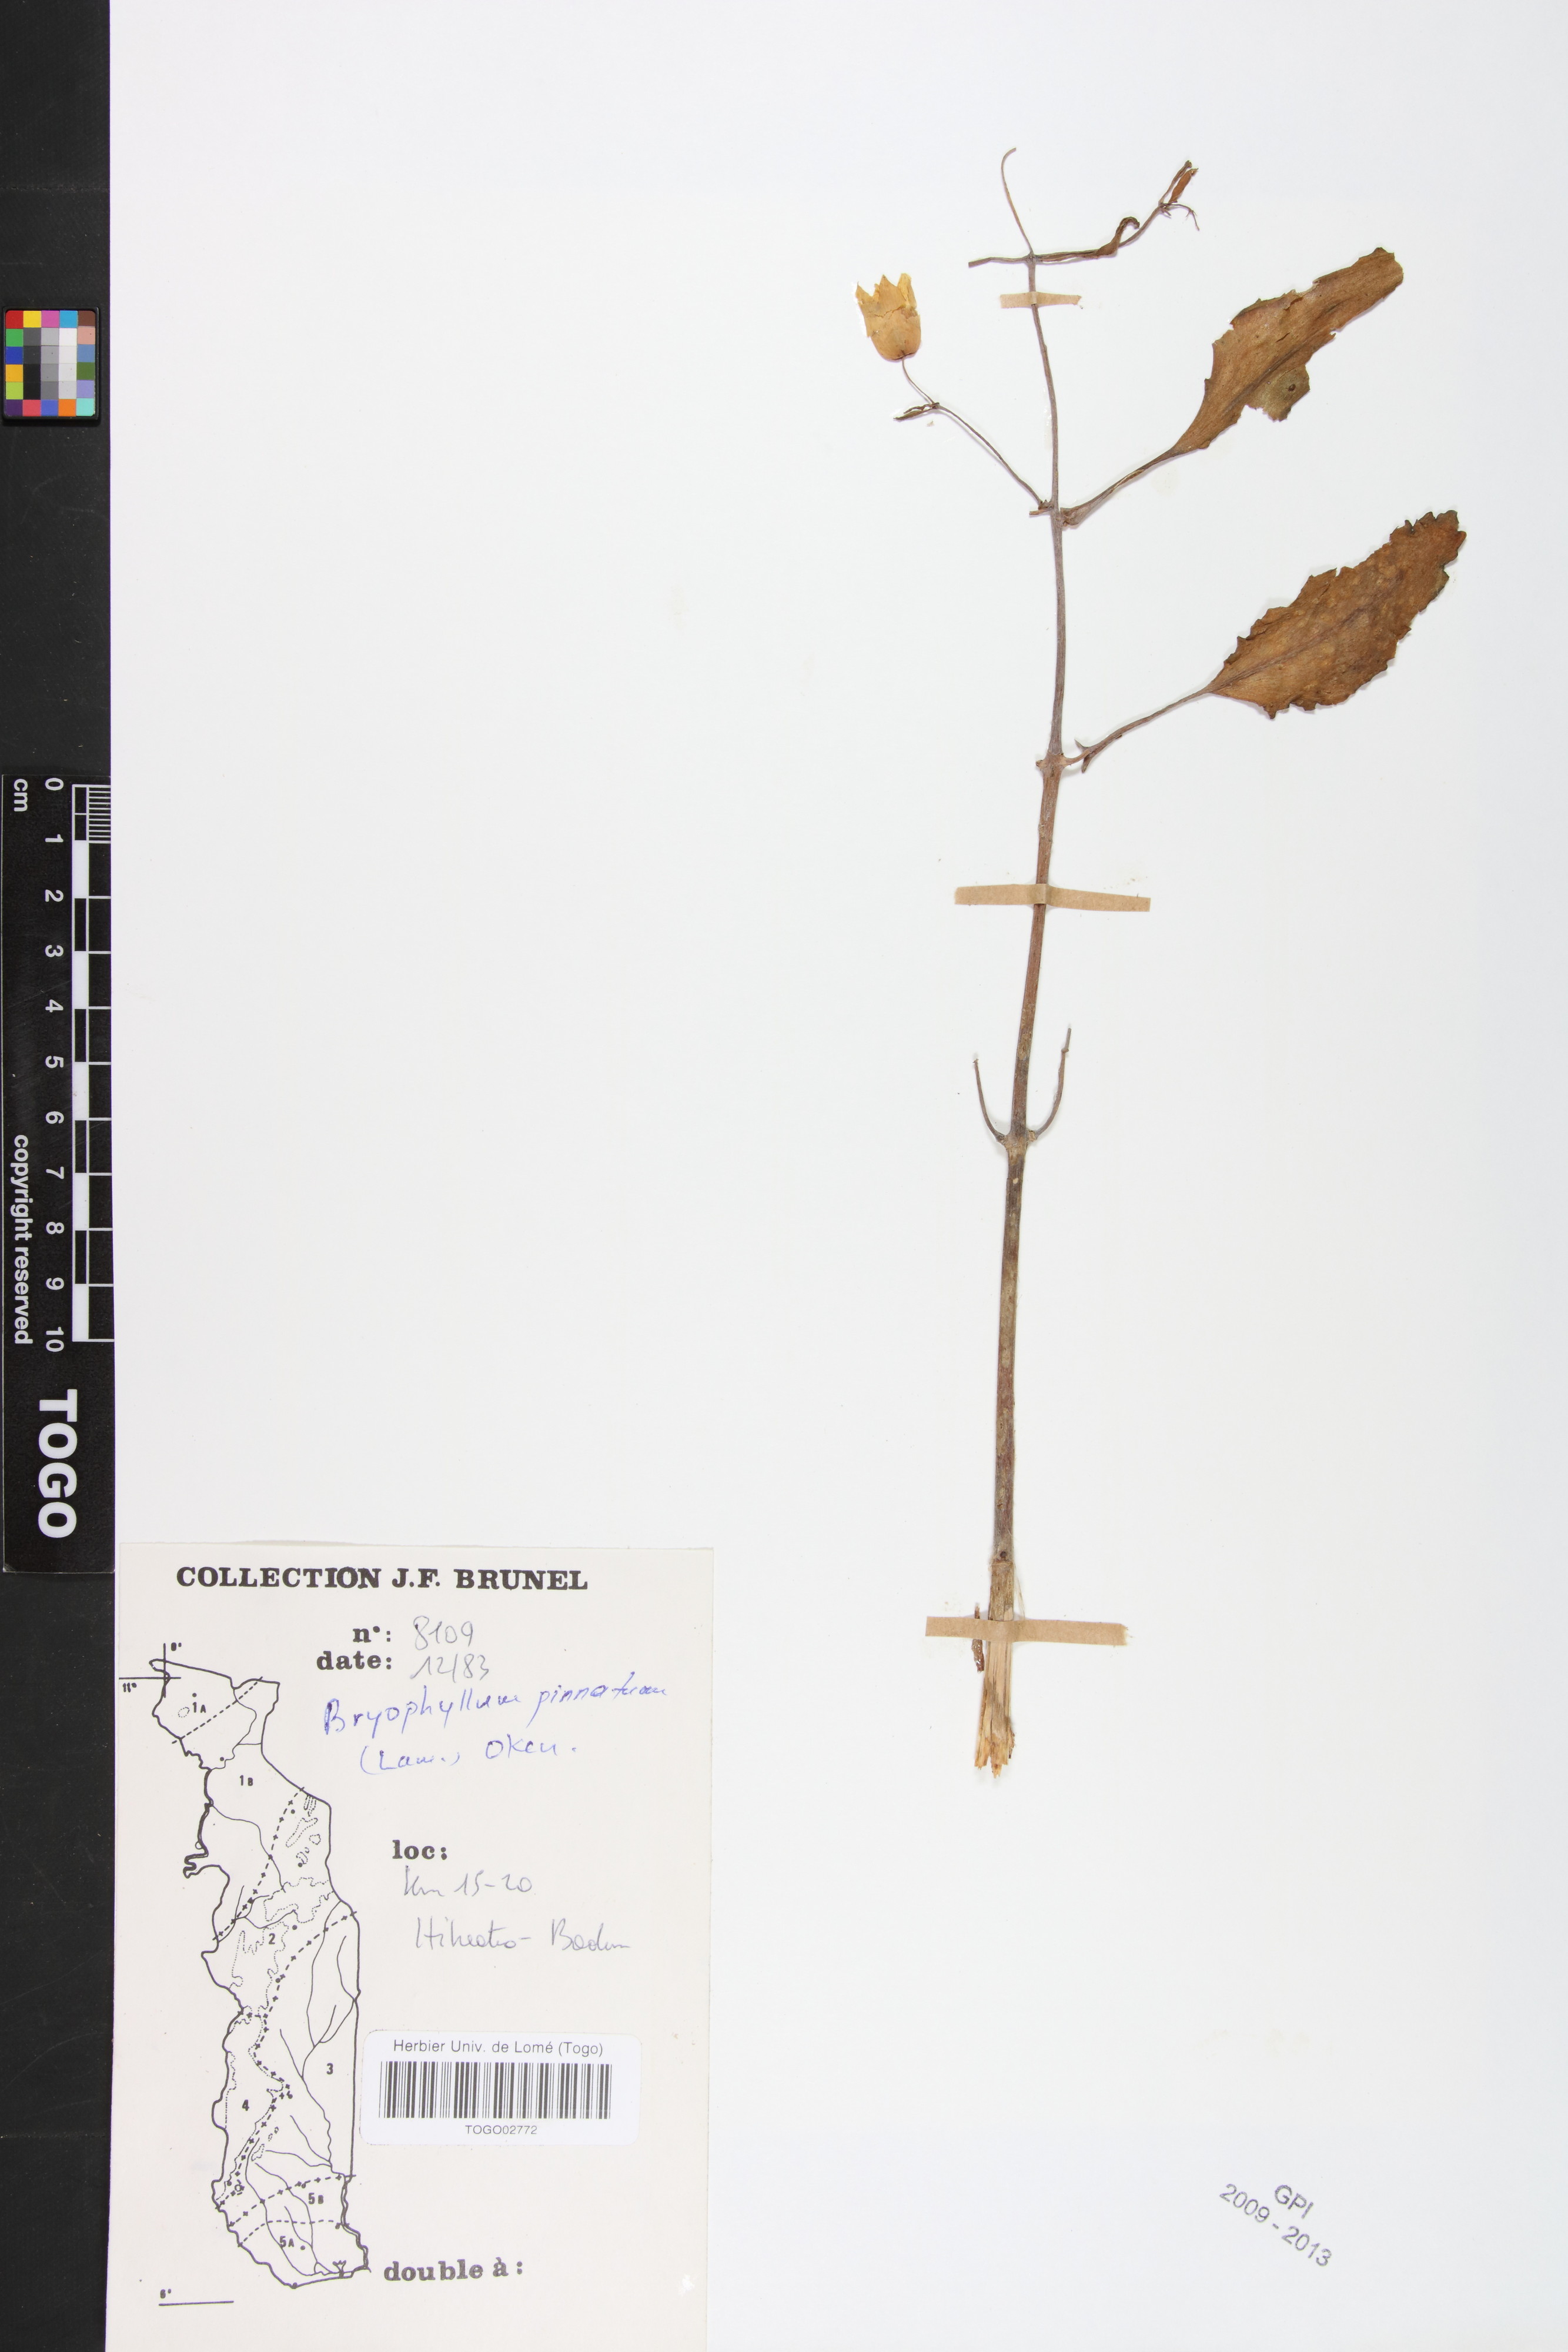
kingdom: Plantae
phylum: Tracheophyta
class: Magnoliopsida
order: Saxifragales
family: Crassulaceae
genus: Kalanchoe
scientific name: Kalanchoe pinnata
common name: Cathedral bells
